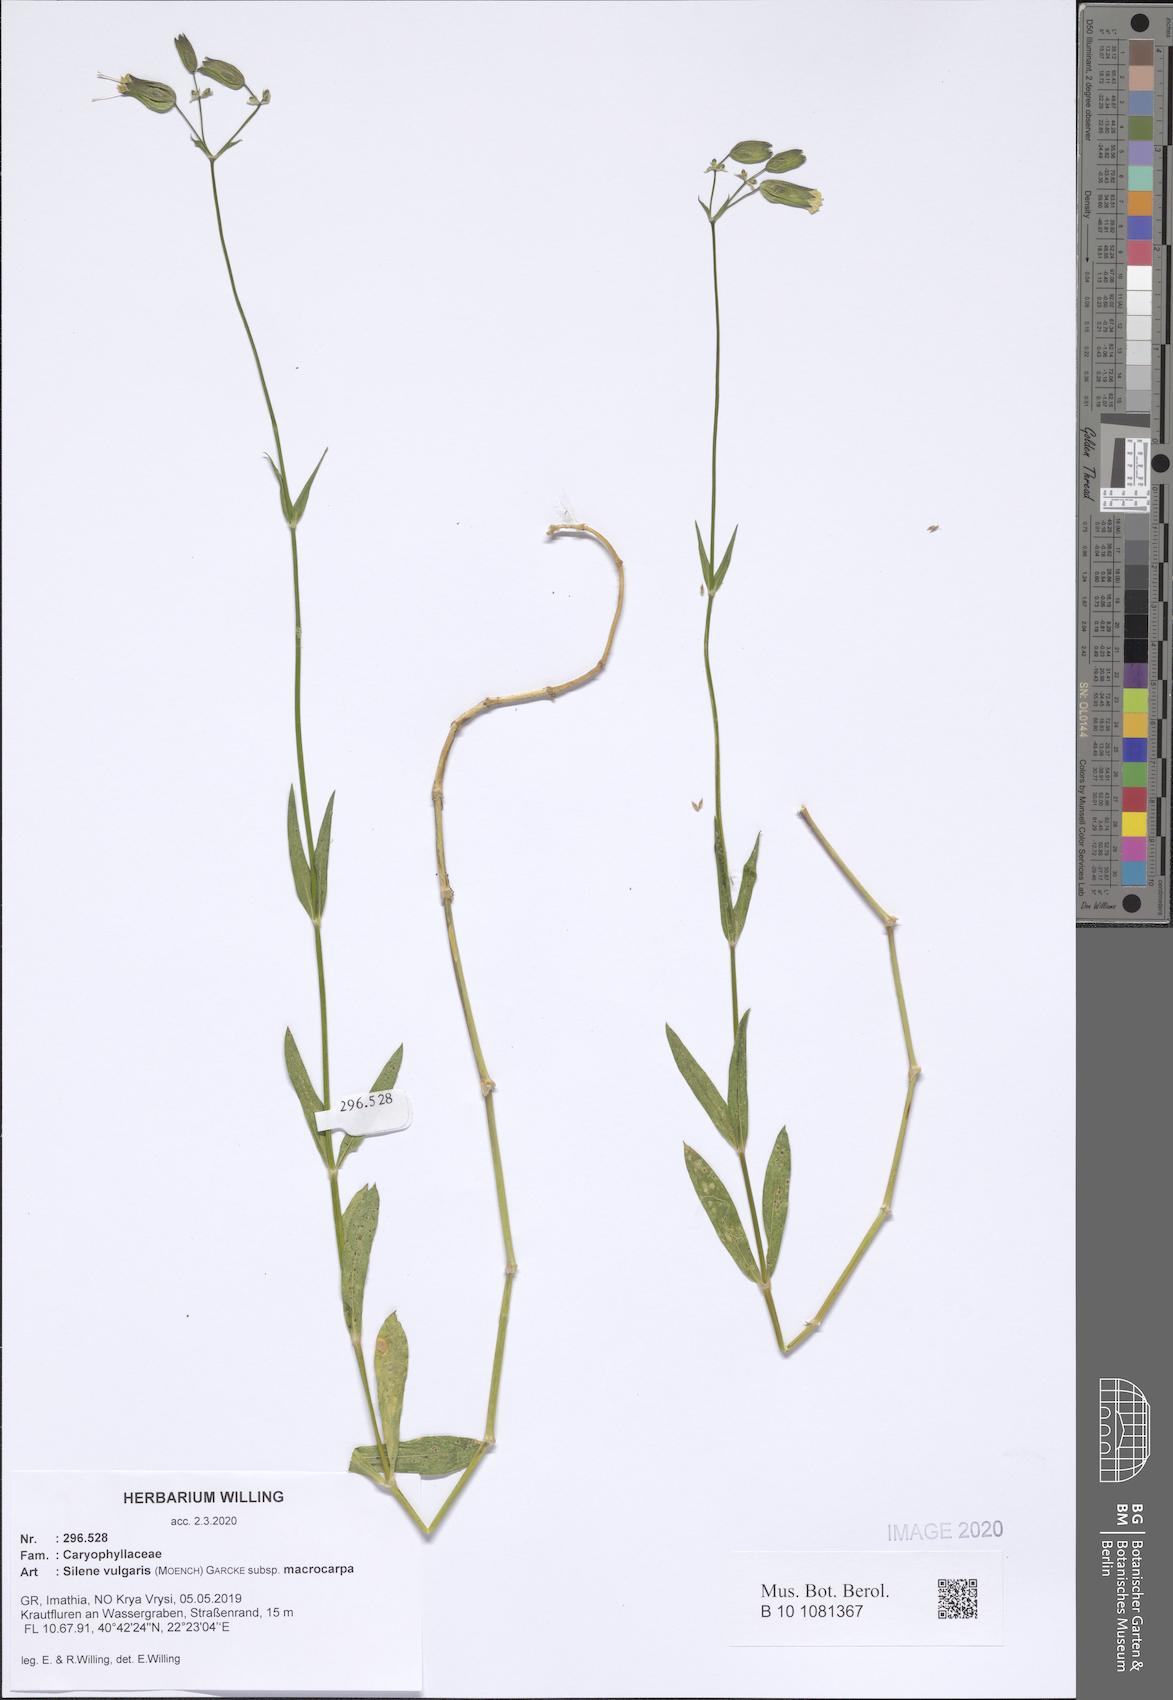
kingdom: Plantae
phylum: Tracheophyta
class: Magnoliopsida
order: Caryophyllales
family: Caryophyllaceae
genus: Silene
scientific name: Silene vulgaris
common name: Bladder campion
